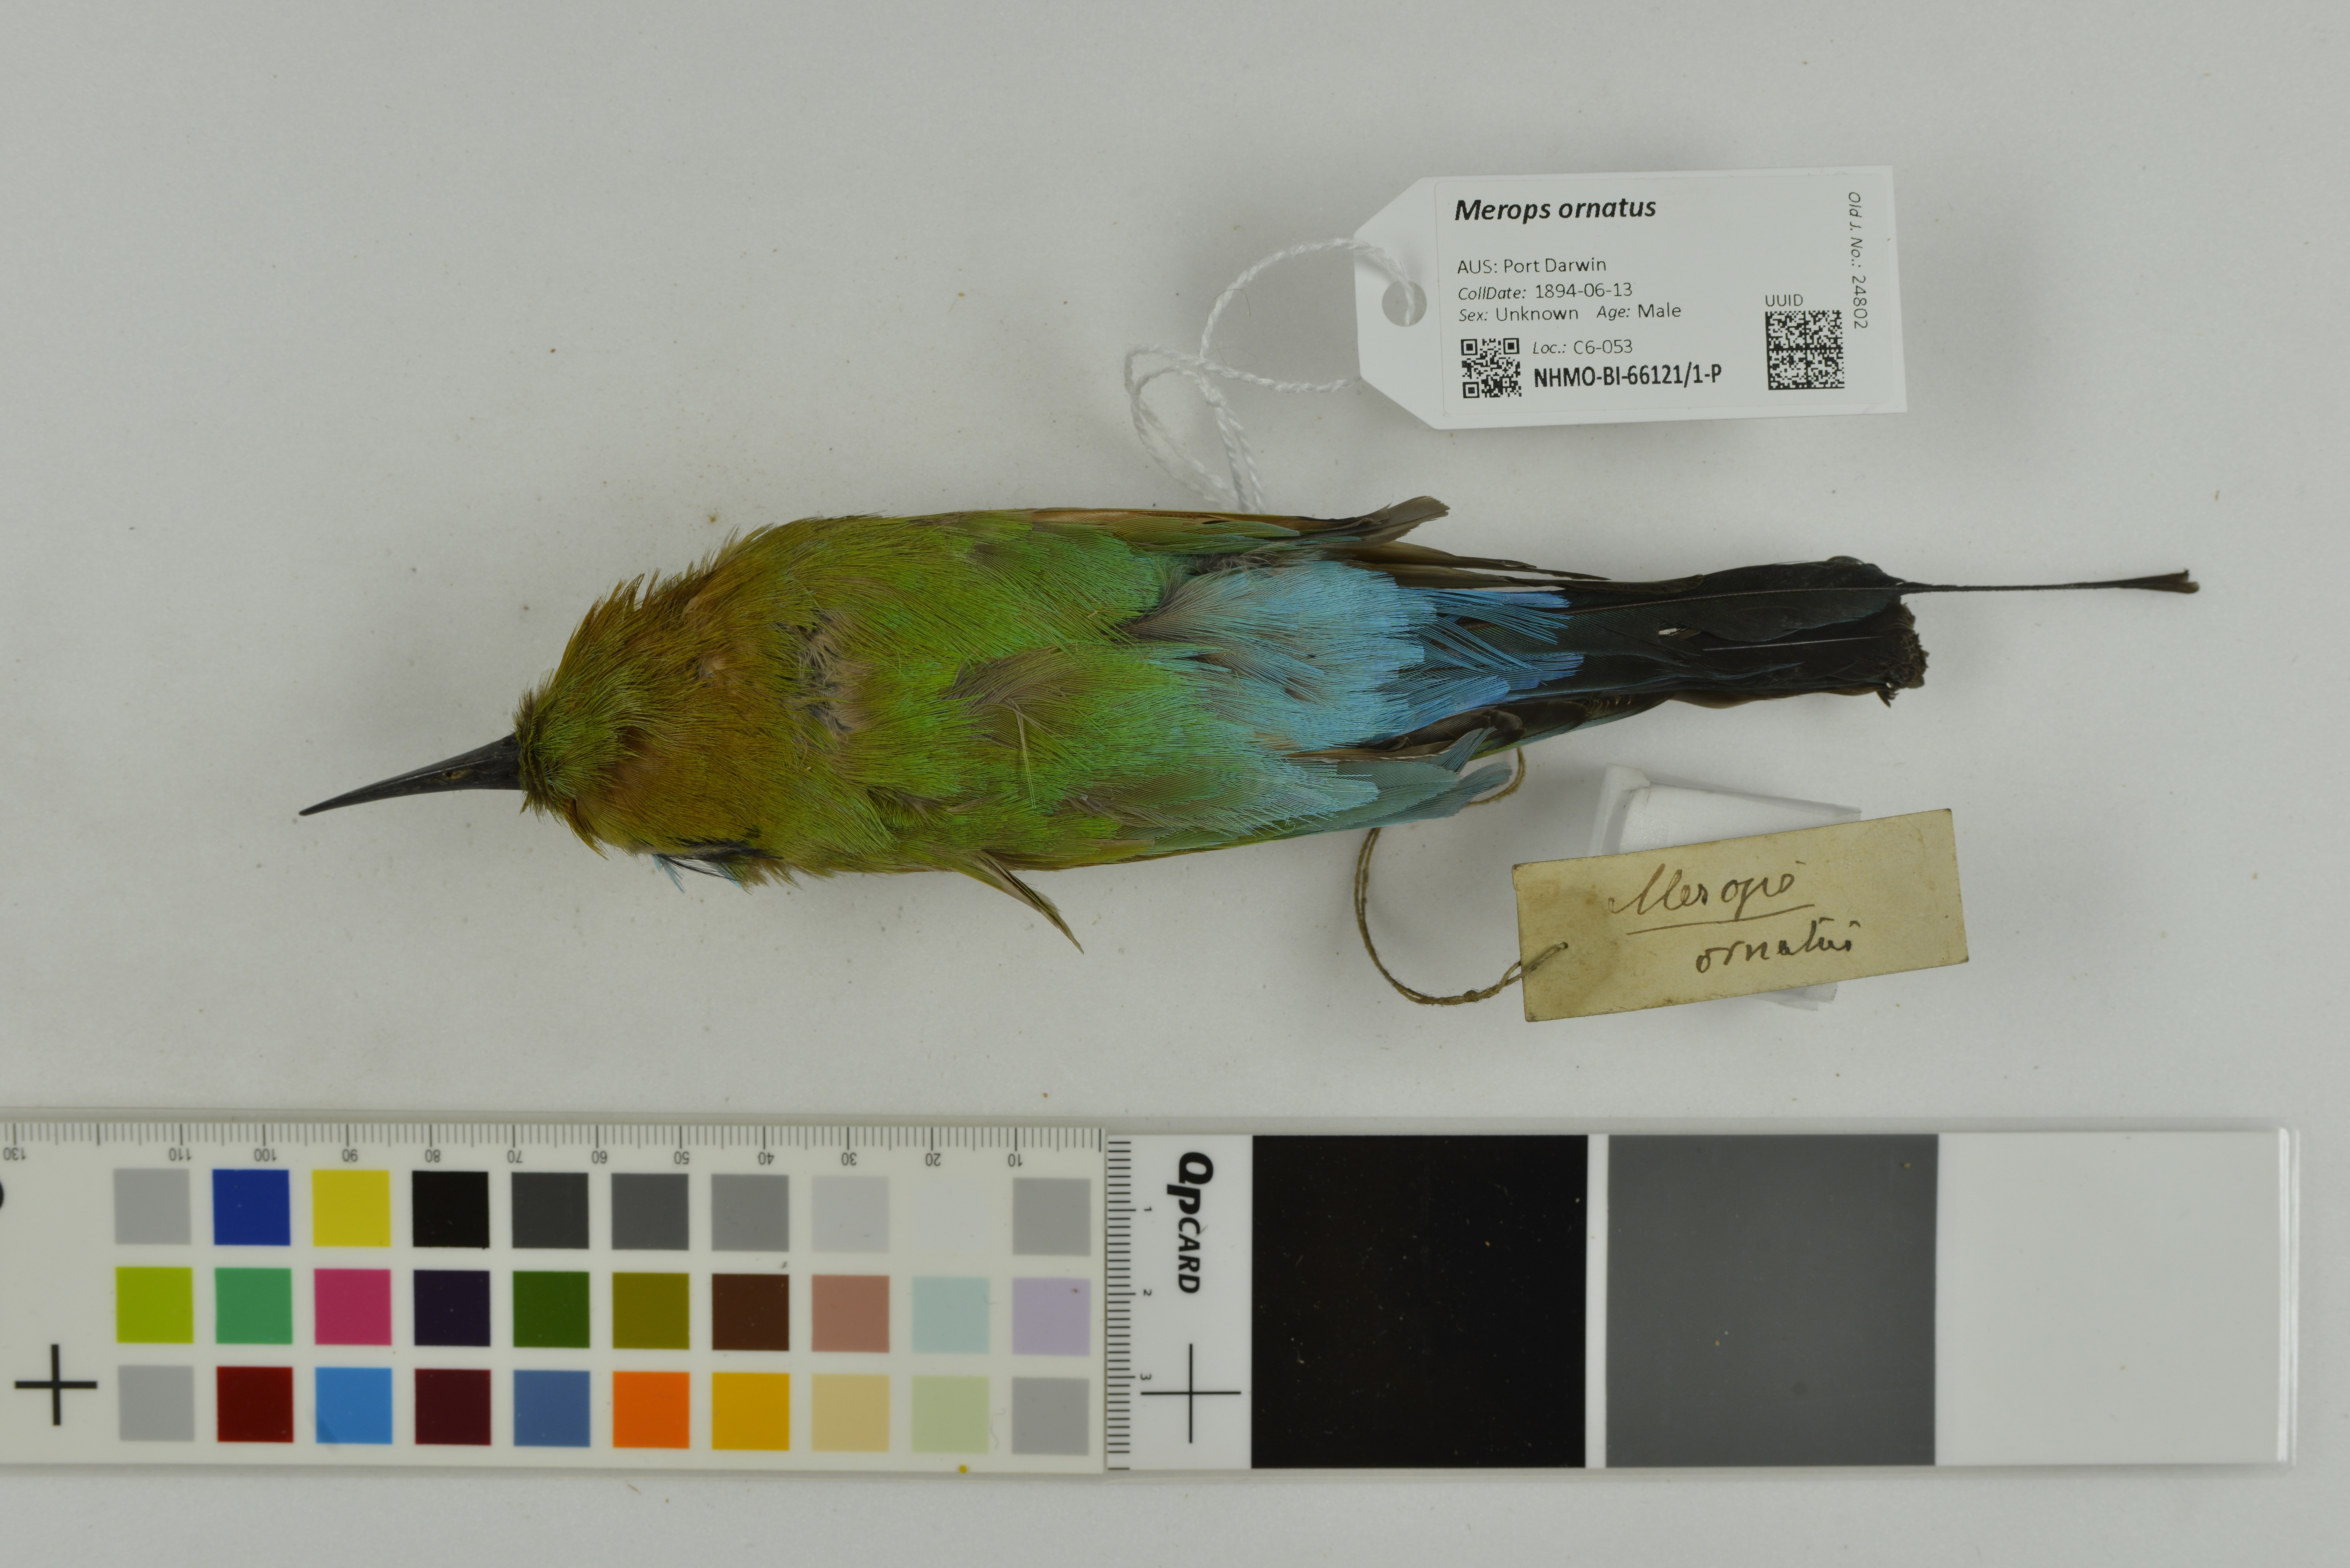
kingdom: Animalia
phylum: Chordata
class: Aves
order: Coraciiformes
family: Meropidae
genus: Merops
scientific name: Merops ornatus
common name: Rainbow bee-eater
